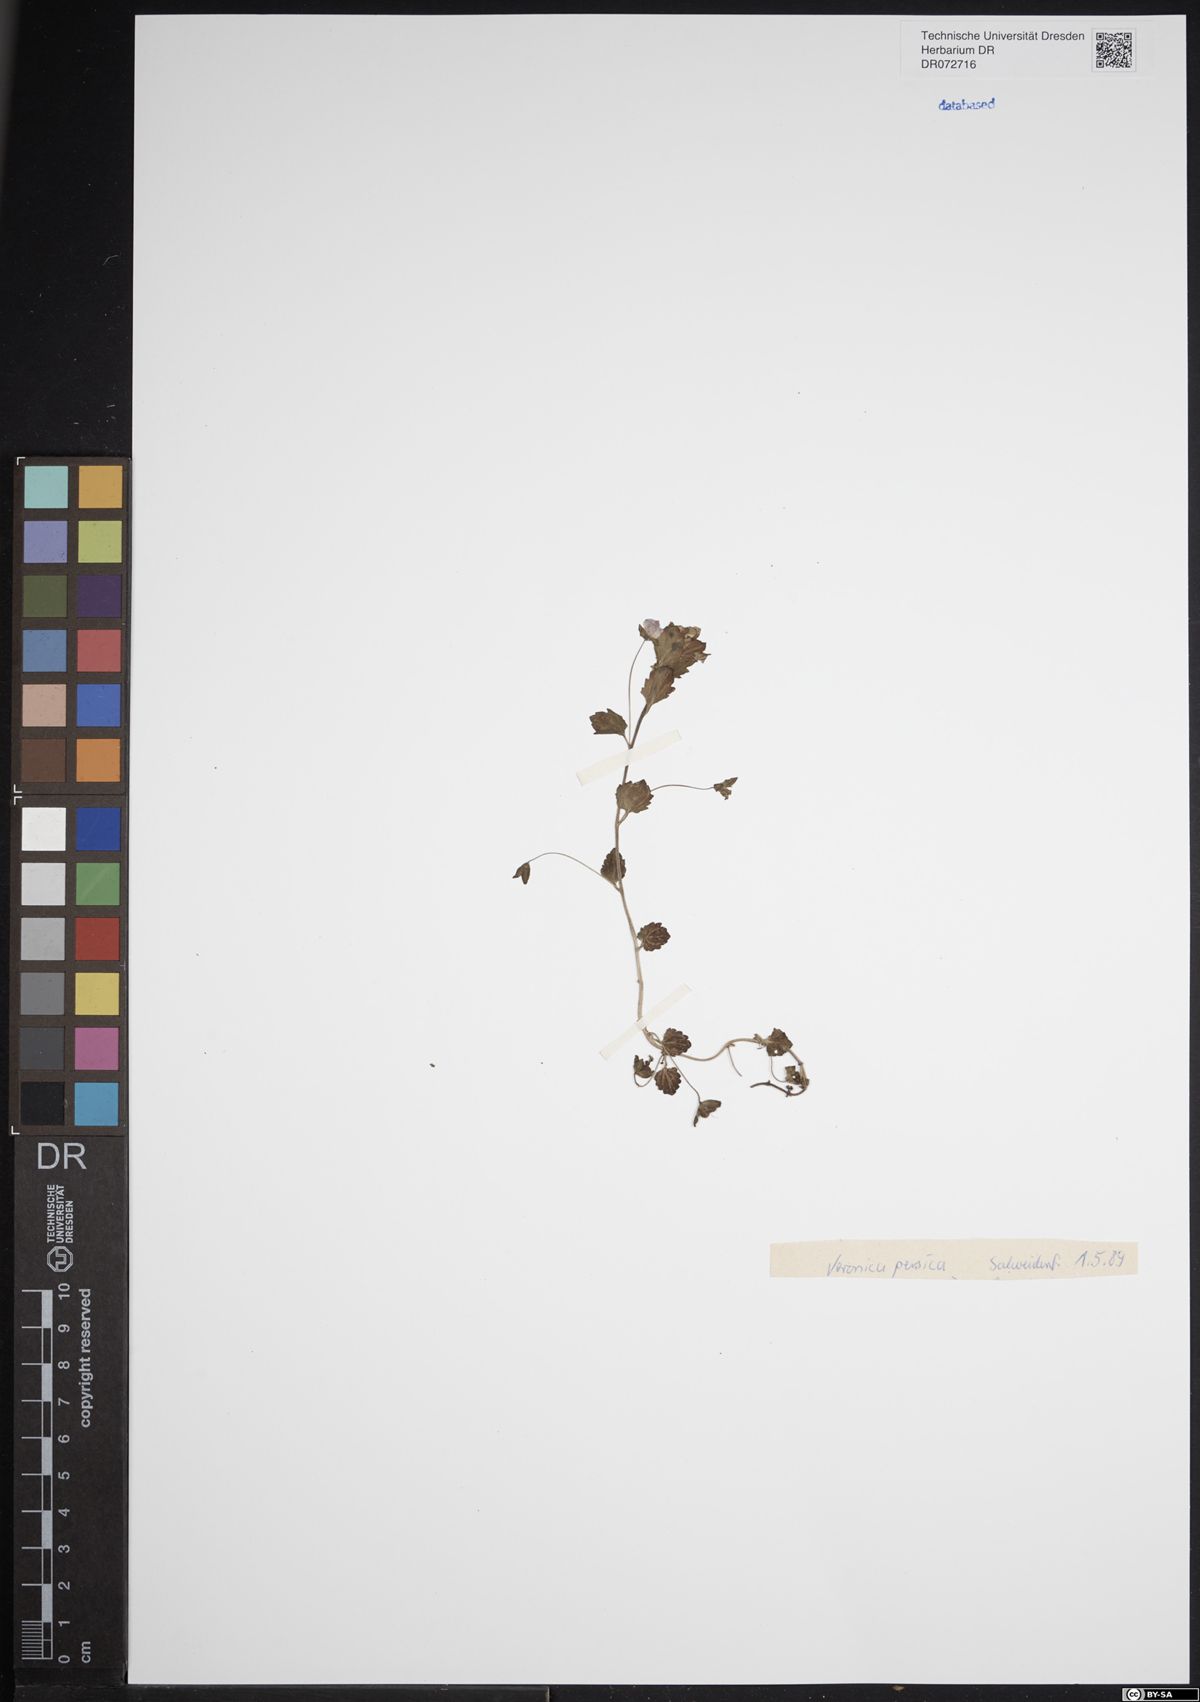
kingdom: Plantae
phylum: Tracheophyta
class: Magnoliopsida
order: Lamiales
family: Plantaginaceae
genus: Veronica
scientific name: Veronica persica
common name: Common field-speedwell
